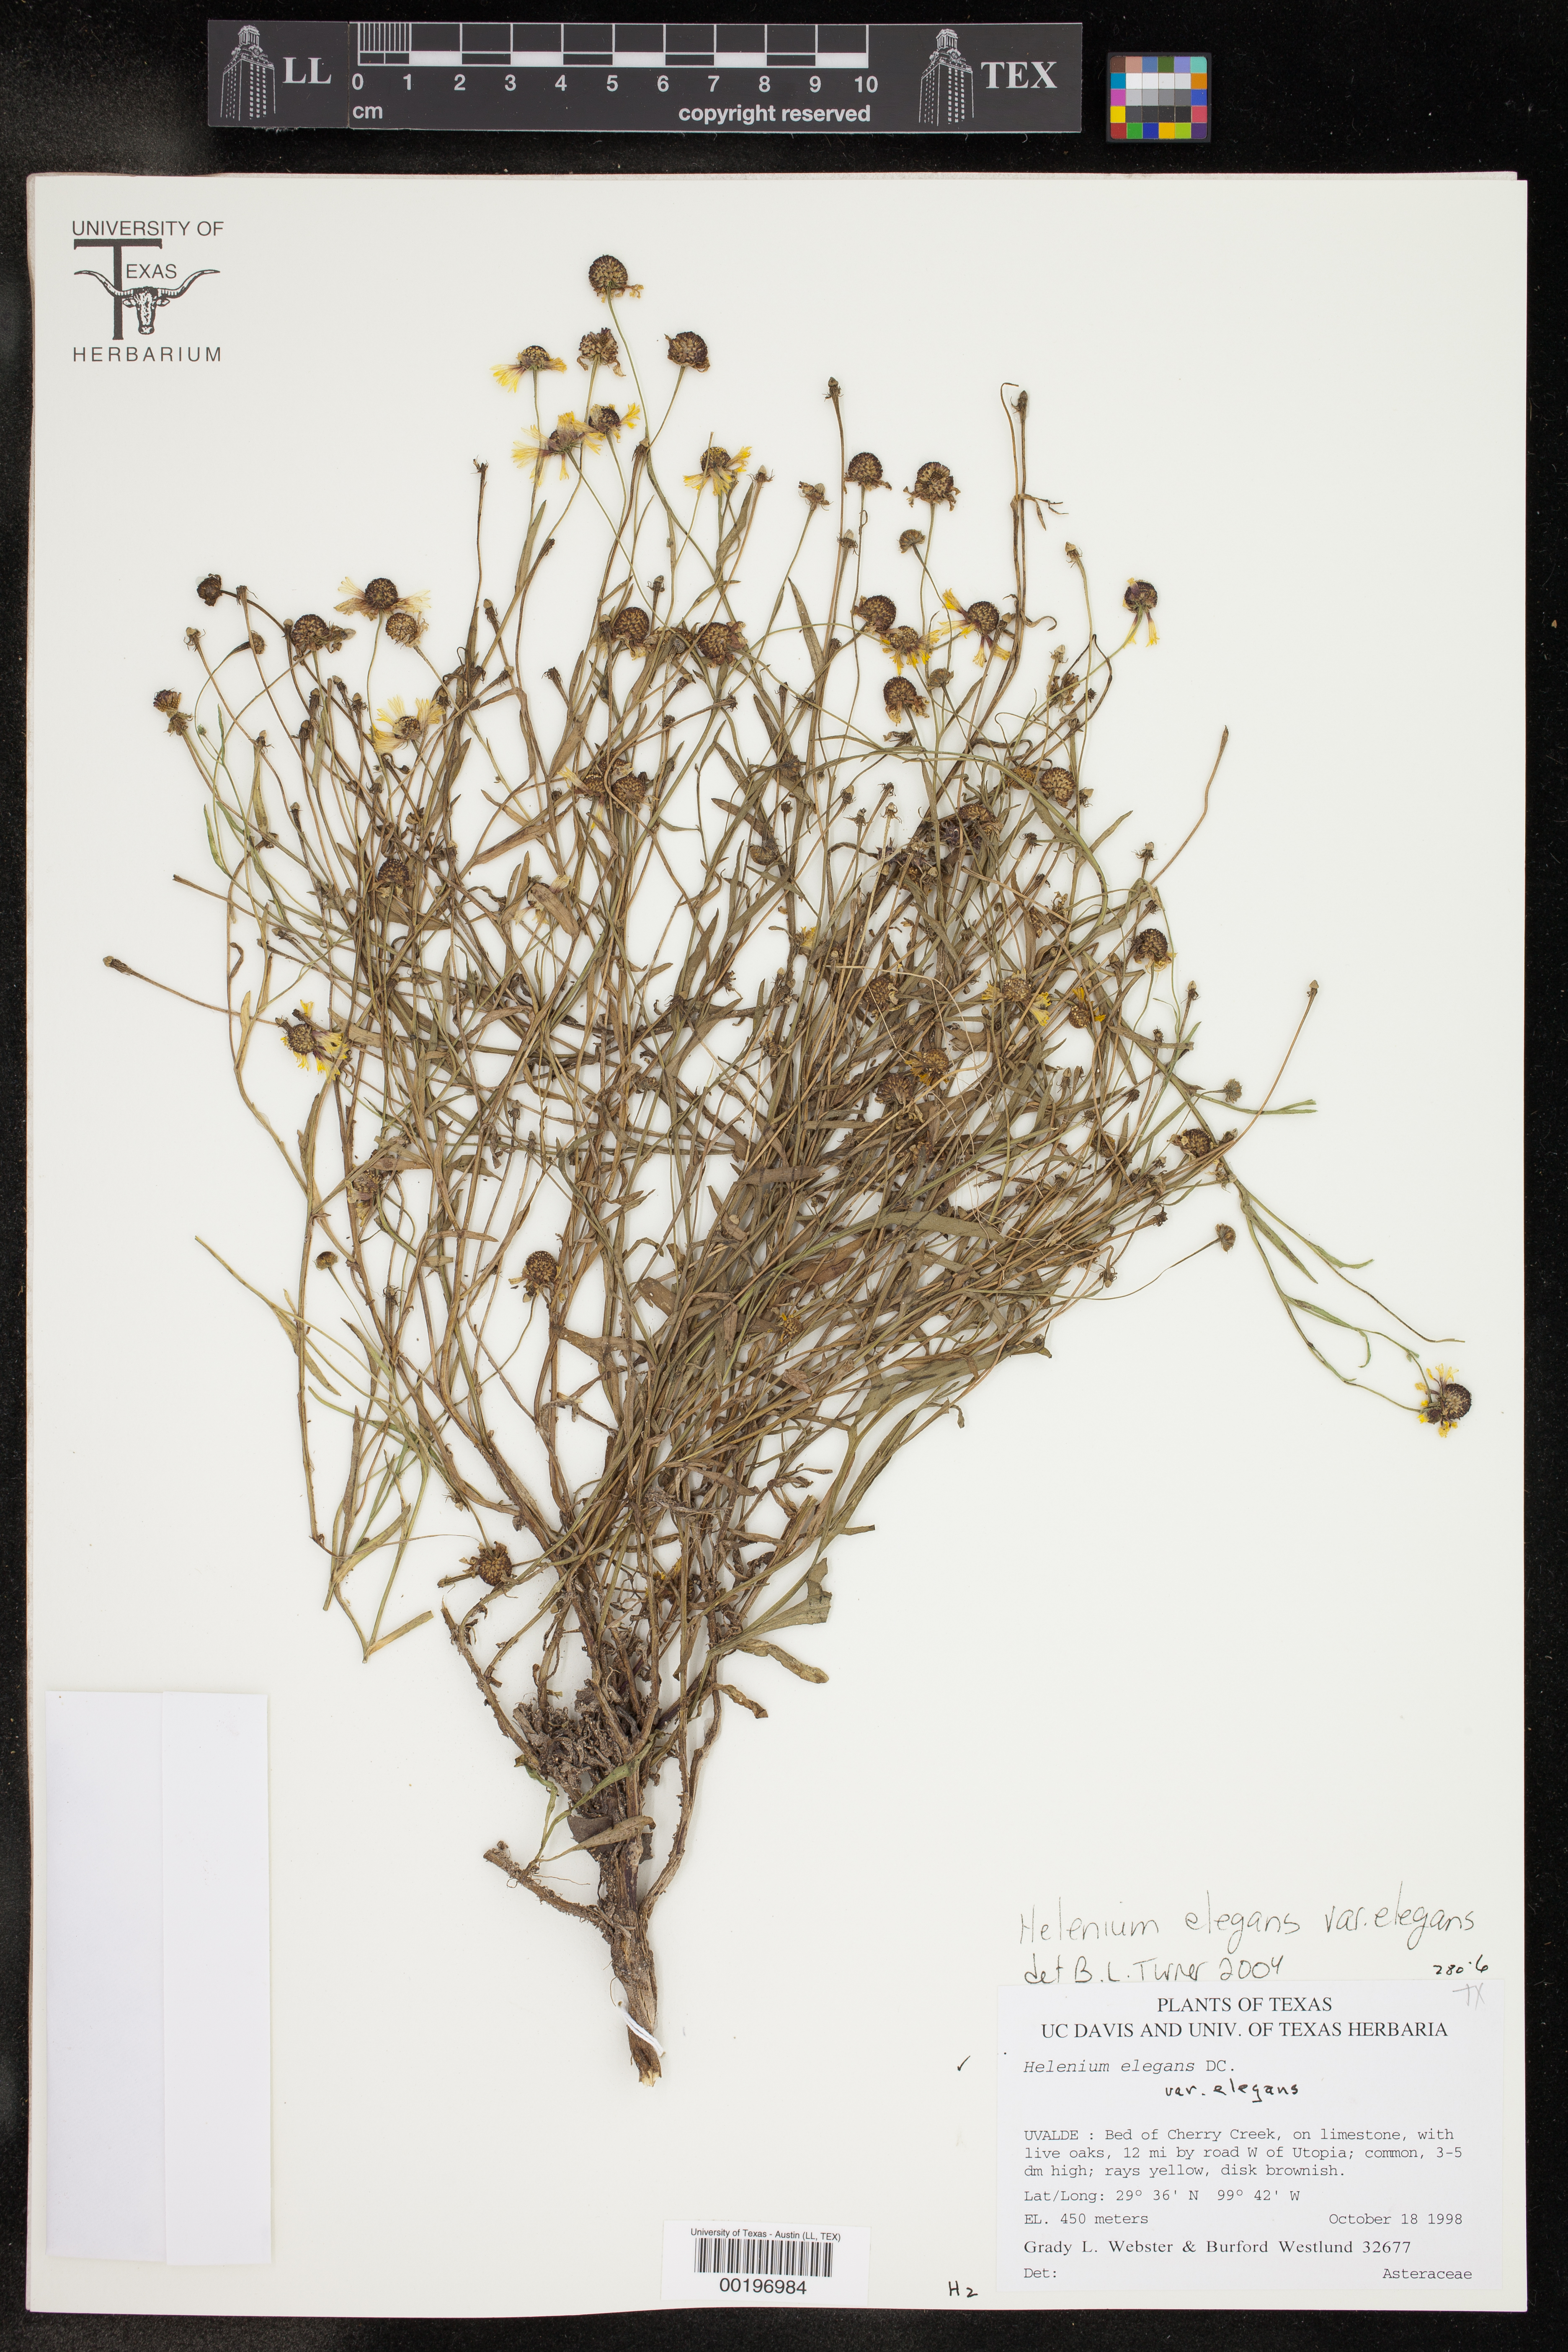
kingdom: Plantae
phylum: Tracheophyta
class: Magnoliopsida
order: Asterales
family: Asteraceae
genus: Helenium
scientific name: Helenium elegans
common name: Pretty sneezeweed
